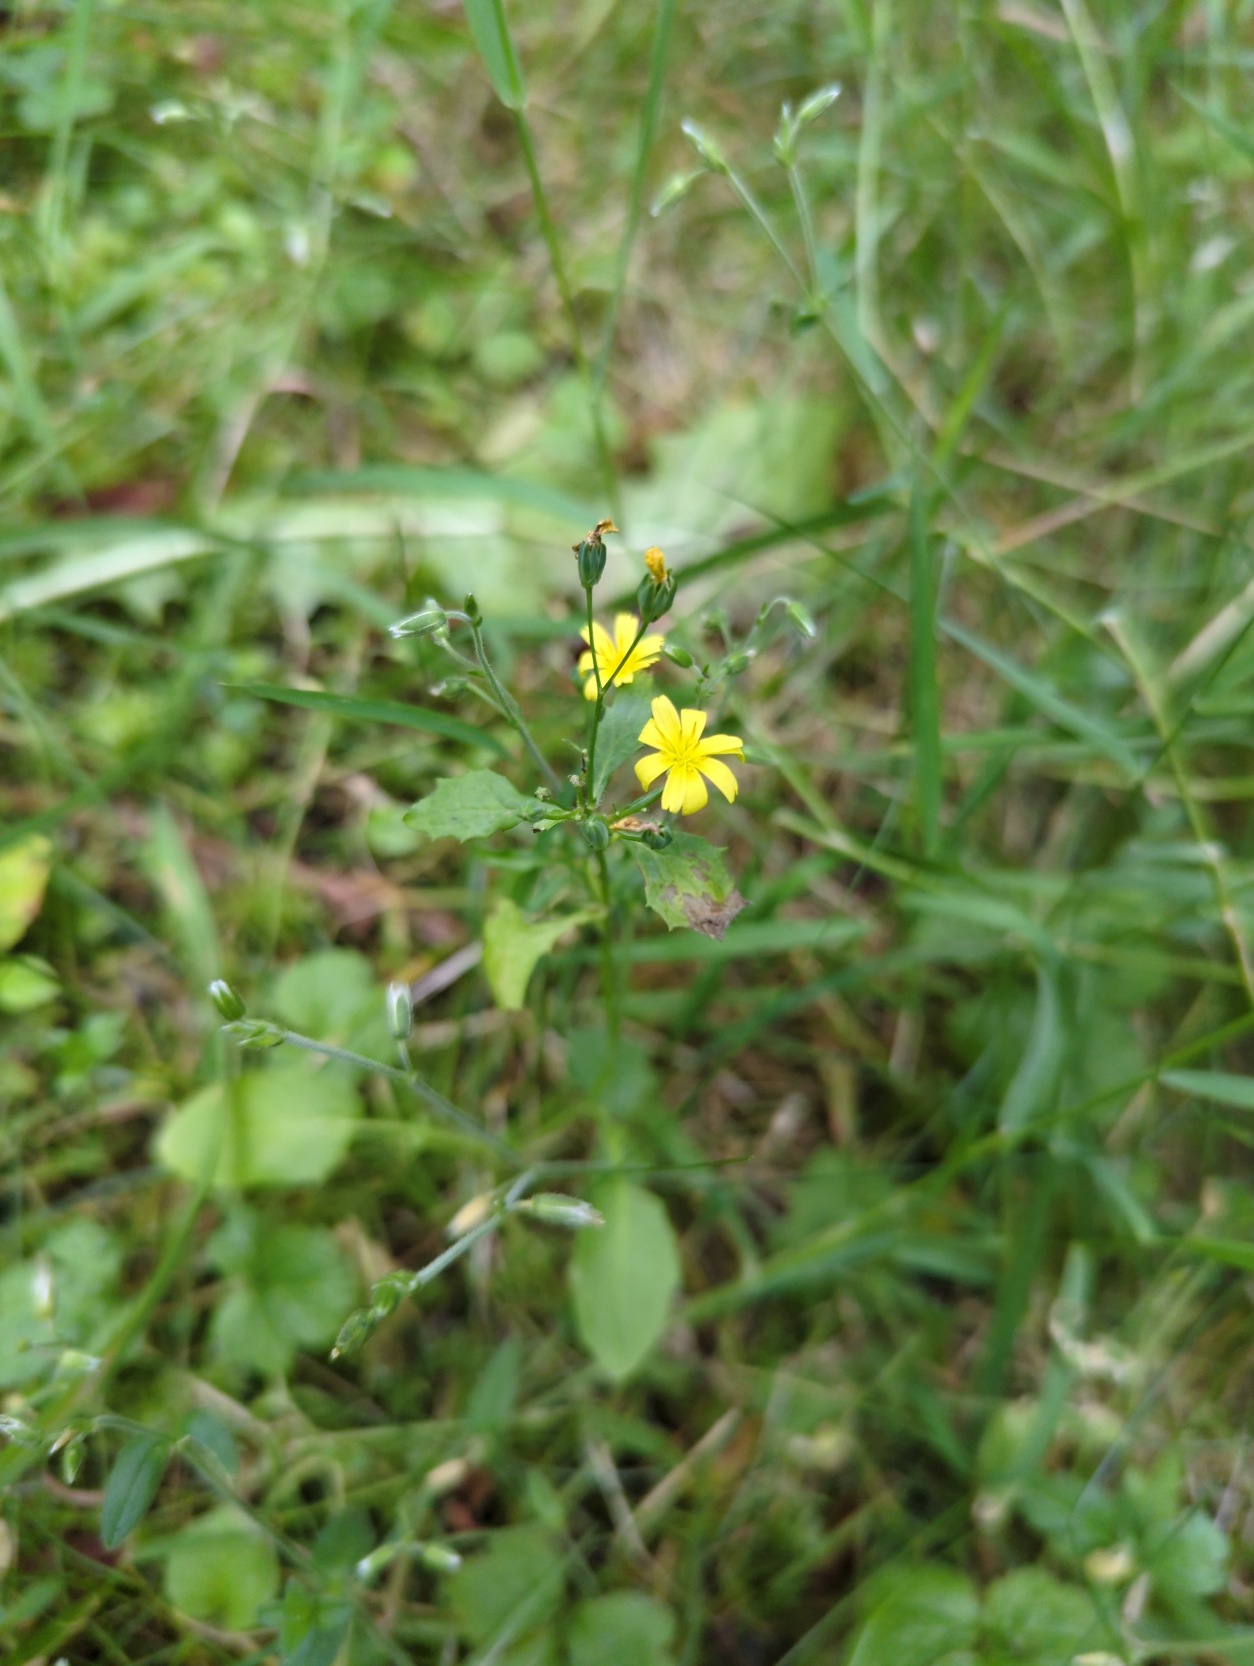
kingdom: Plantae
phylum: Tracheophyta
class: Magnoliopsida
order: Asterales
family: Asteraceae
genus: Lapsana
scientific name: Lapsana communis
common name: Haremad
